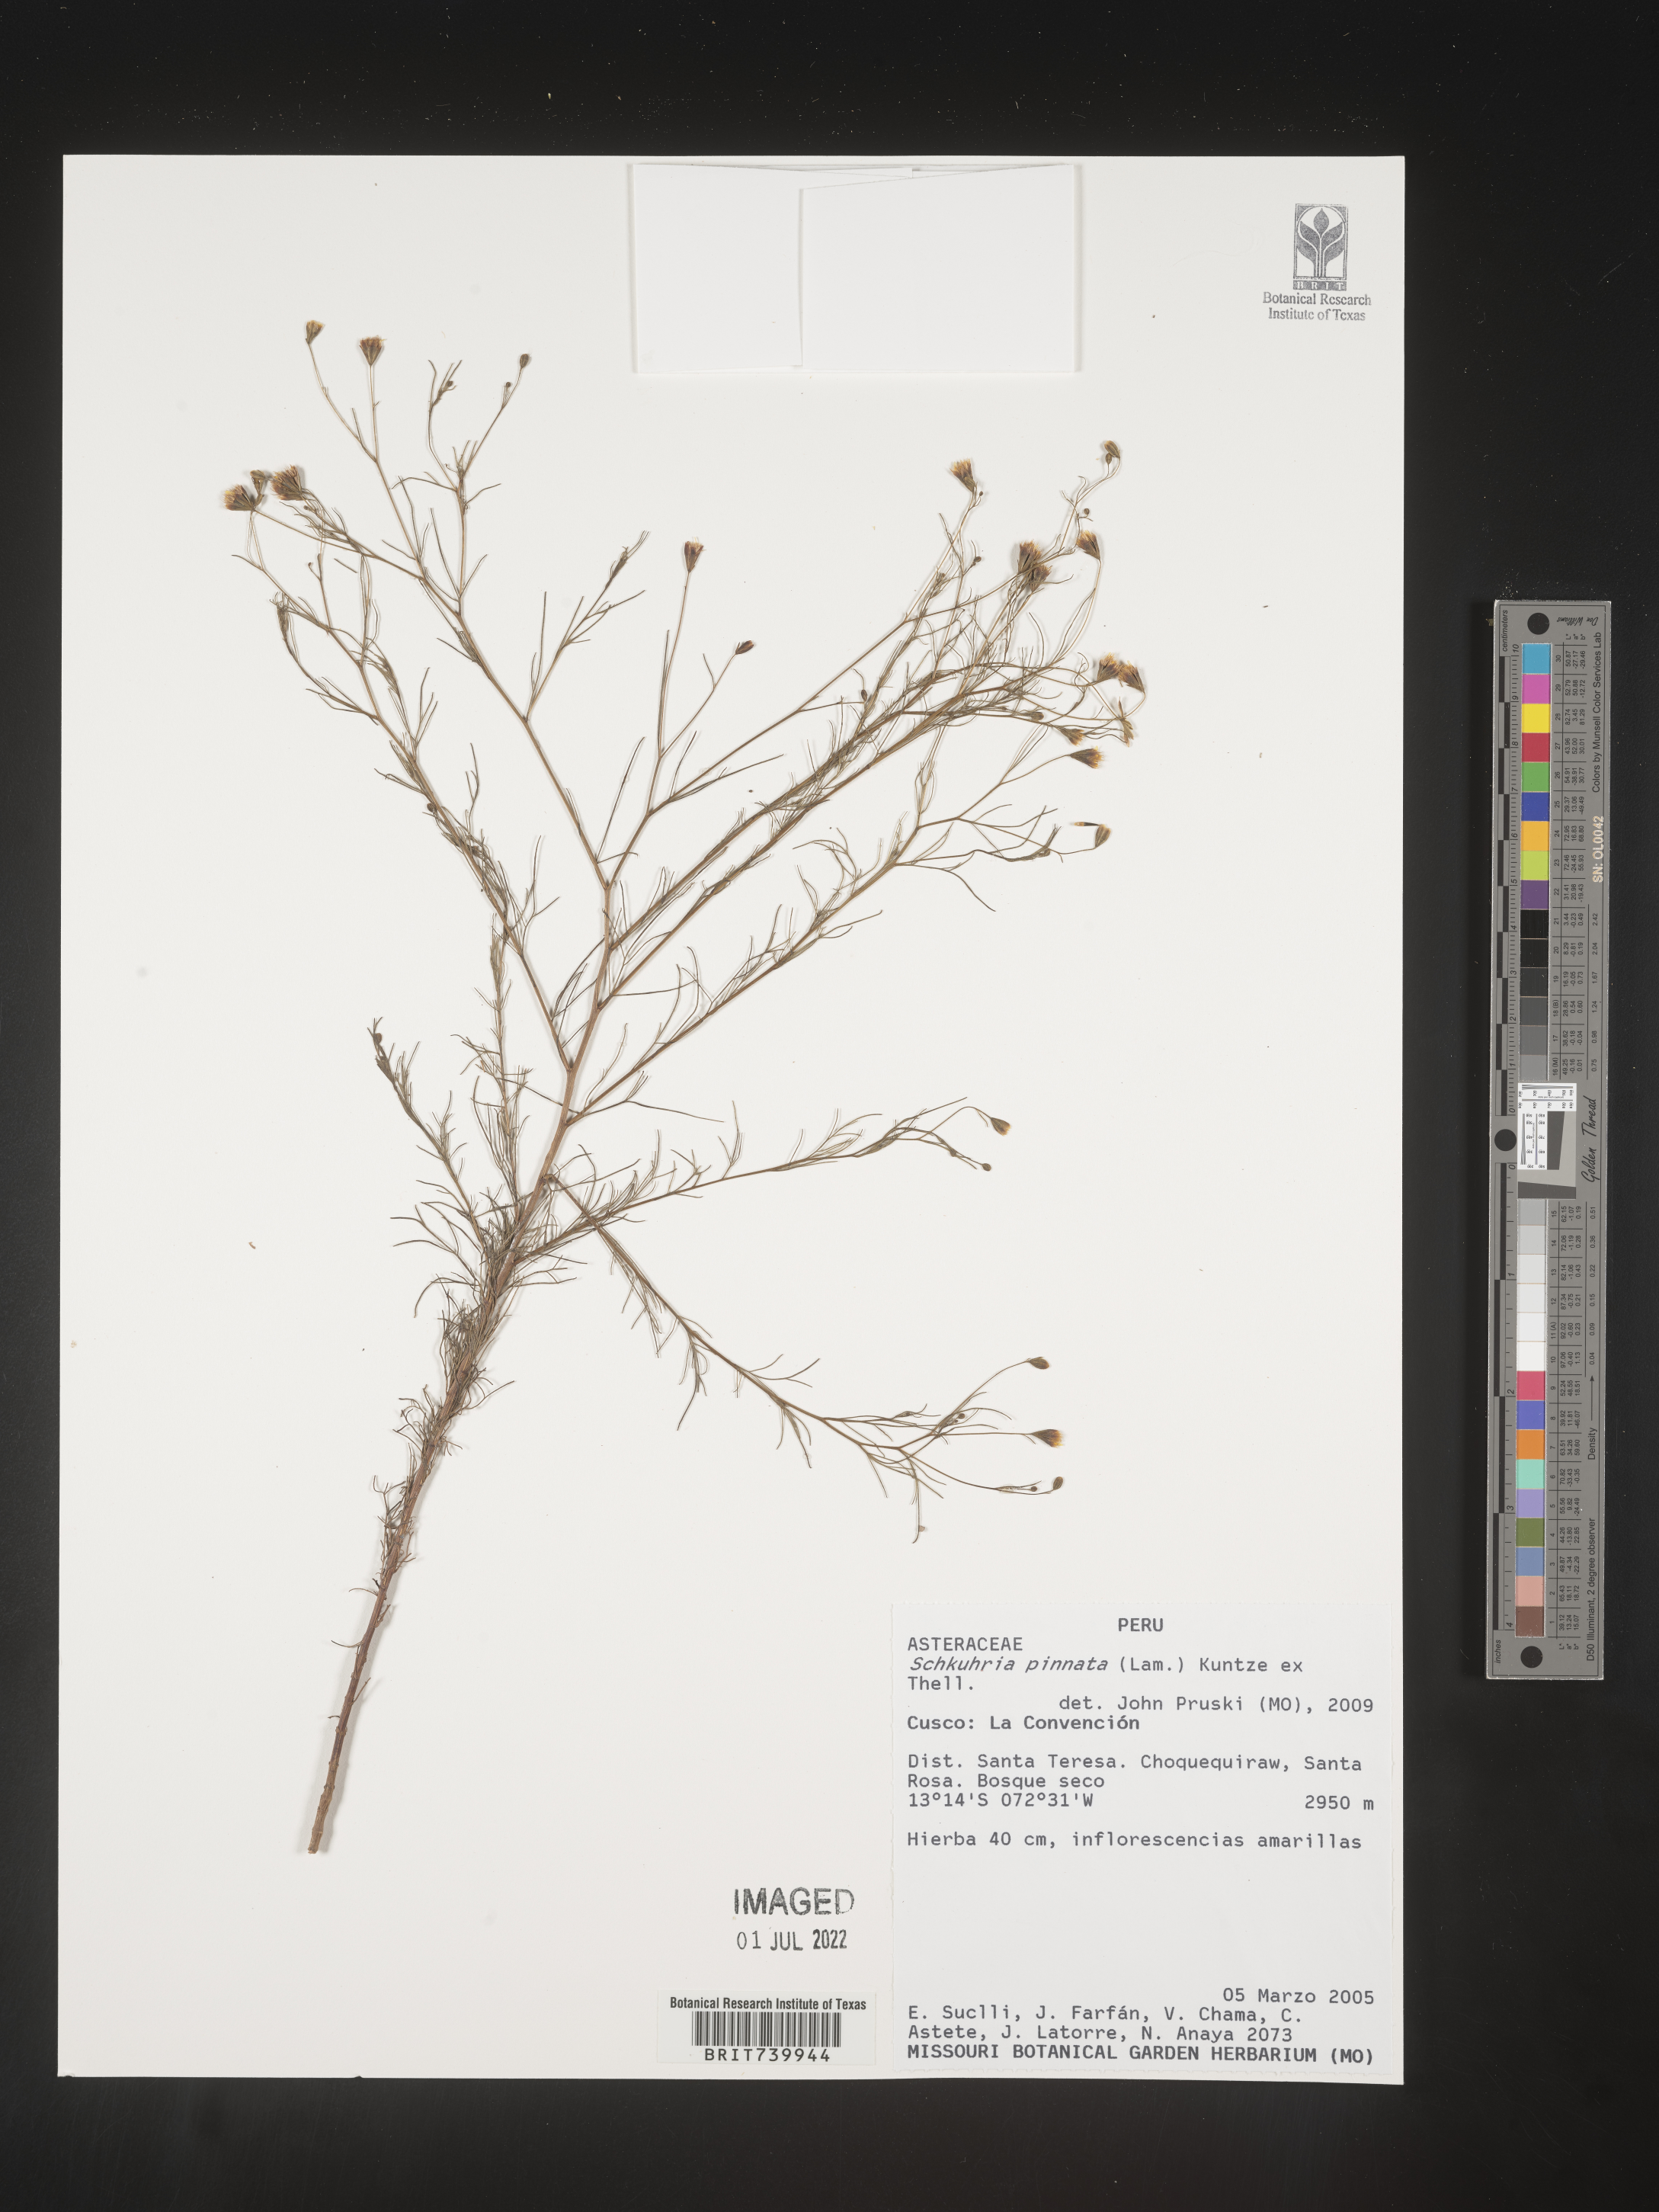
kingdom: Plantae
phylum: Tracheophyta
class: Magnoliopsida
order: Asterales
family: Asteraceae
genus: Schkuhria
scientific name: Schkuhria
